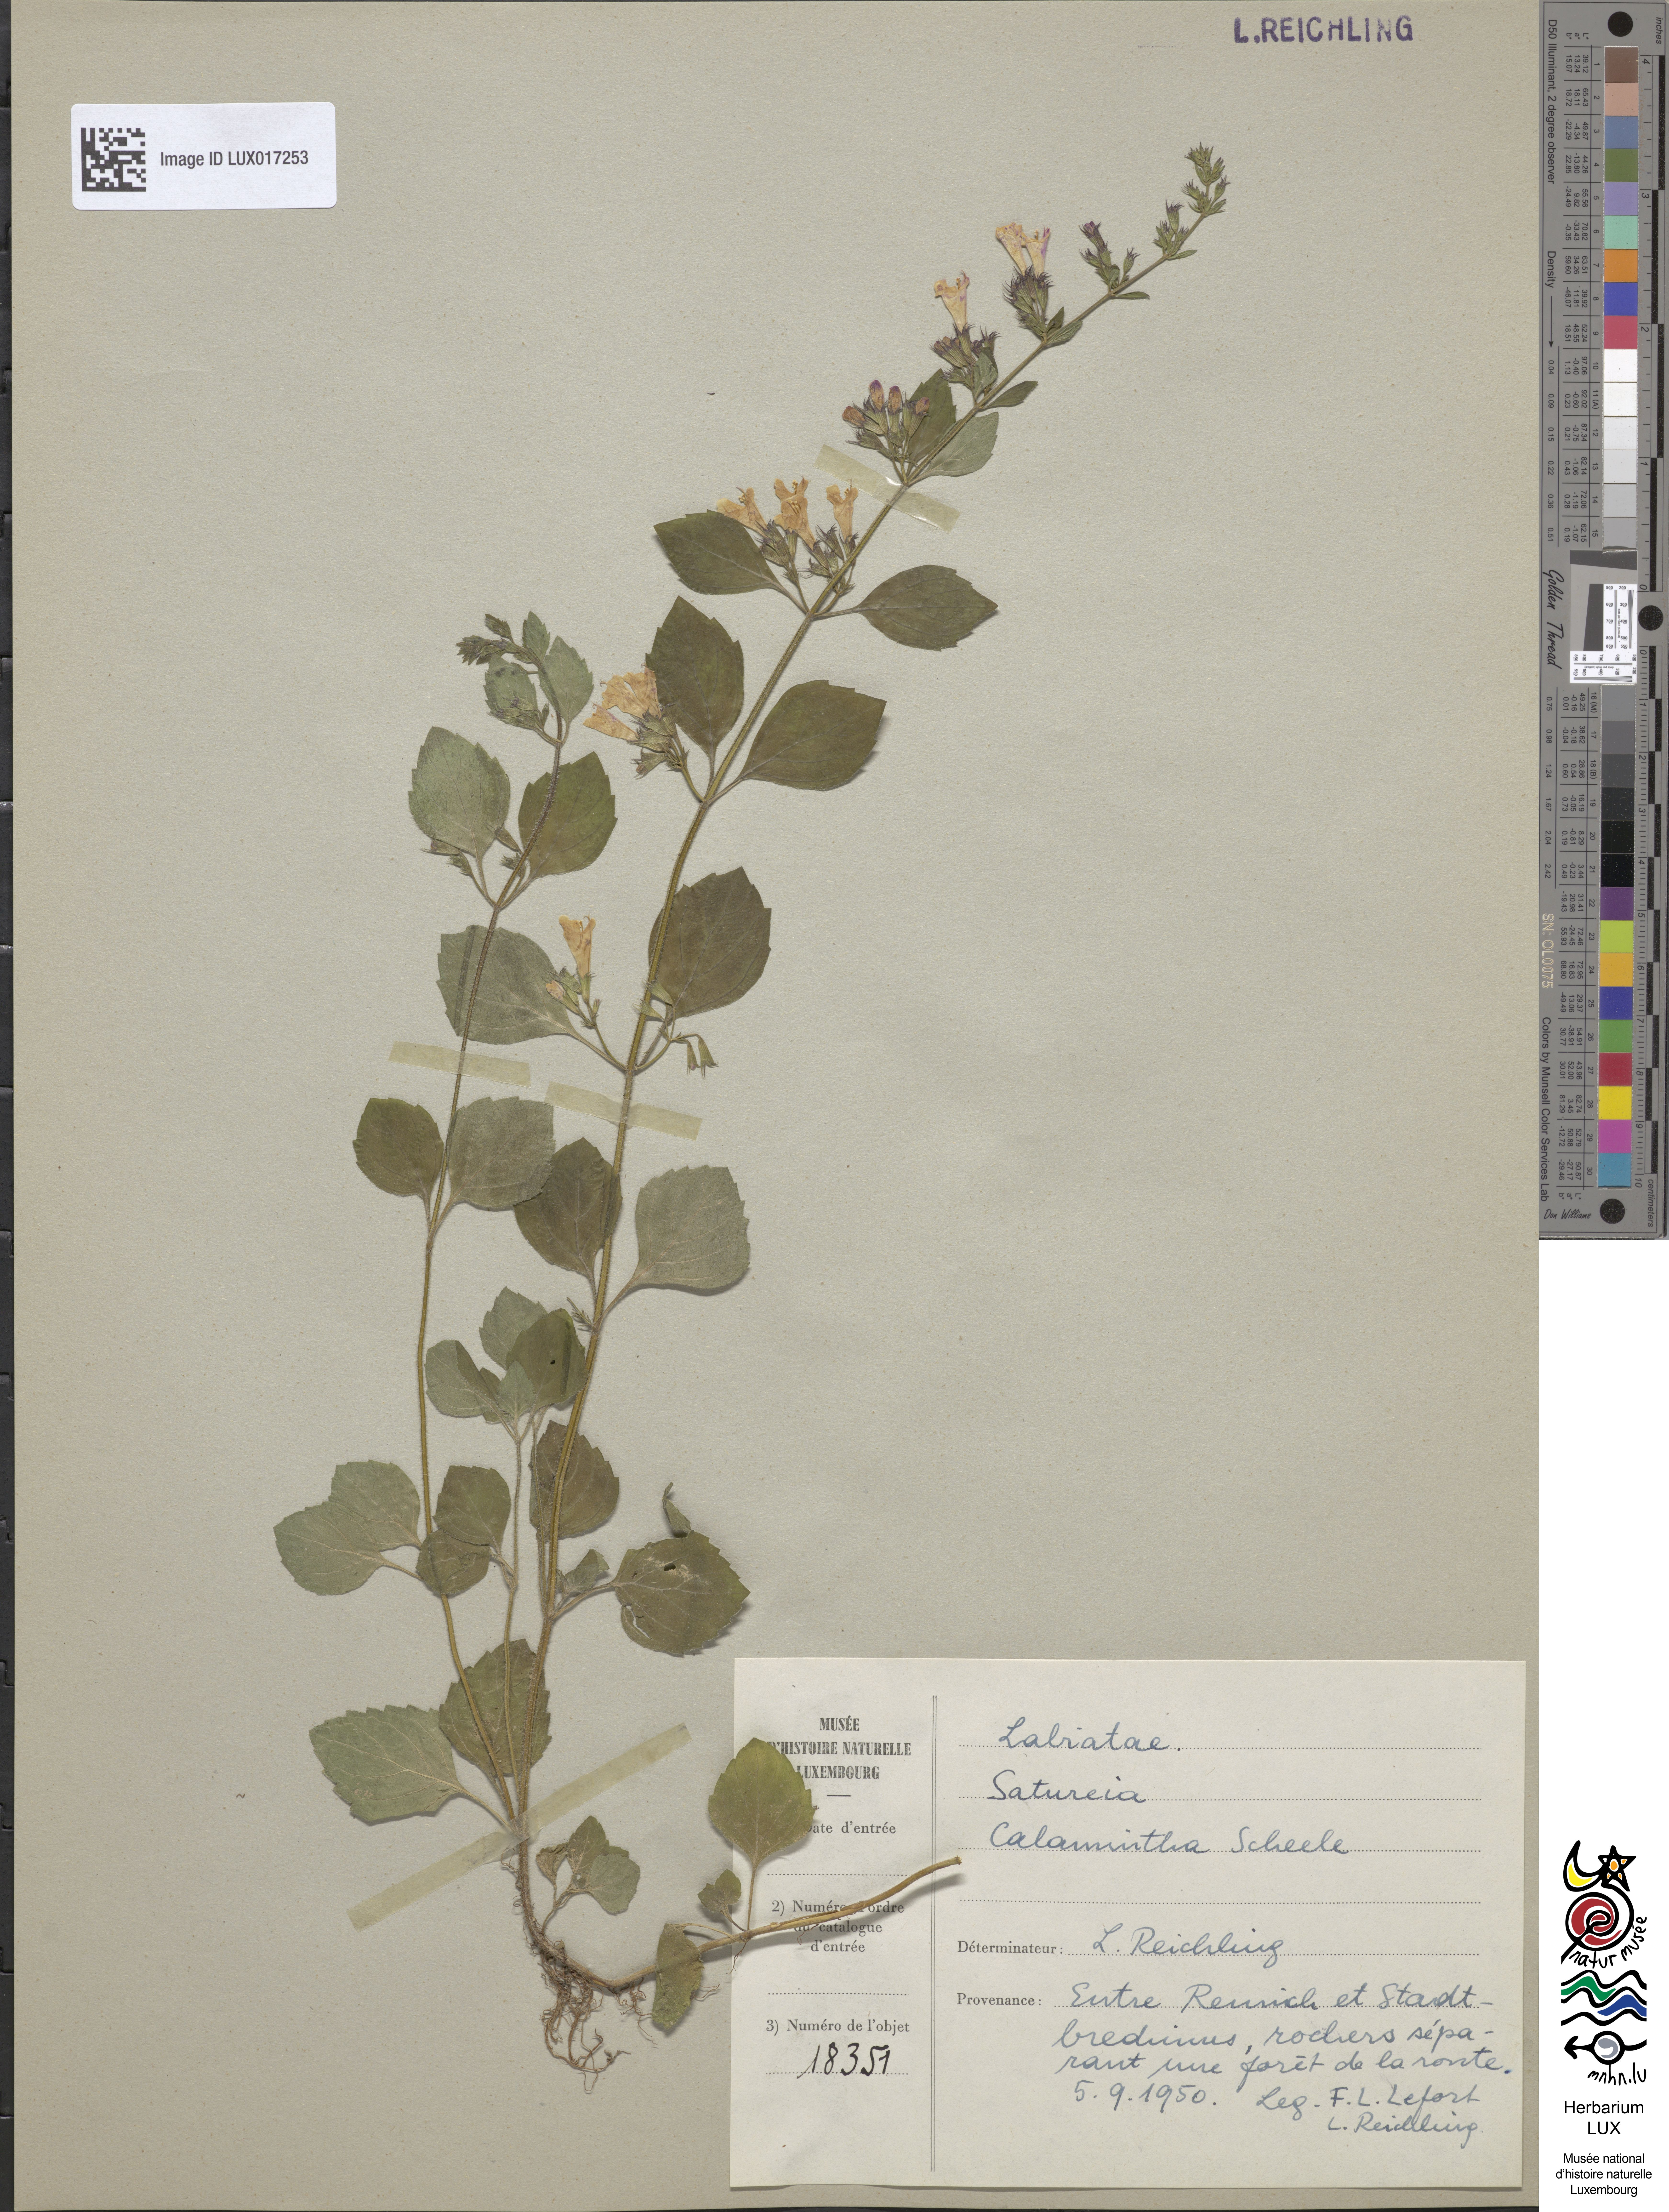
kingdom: Plantae
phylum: Tracheophyta
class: Magnoliopsida
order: Lamiales
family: Lamiaceae
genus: Clinopodium
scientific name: Clinopodium nepeta
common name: Lesser calamint
